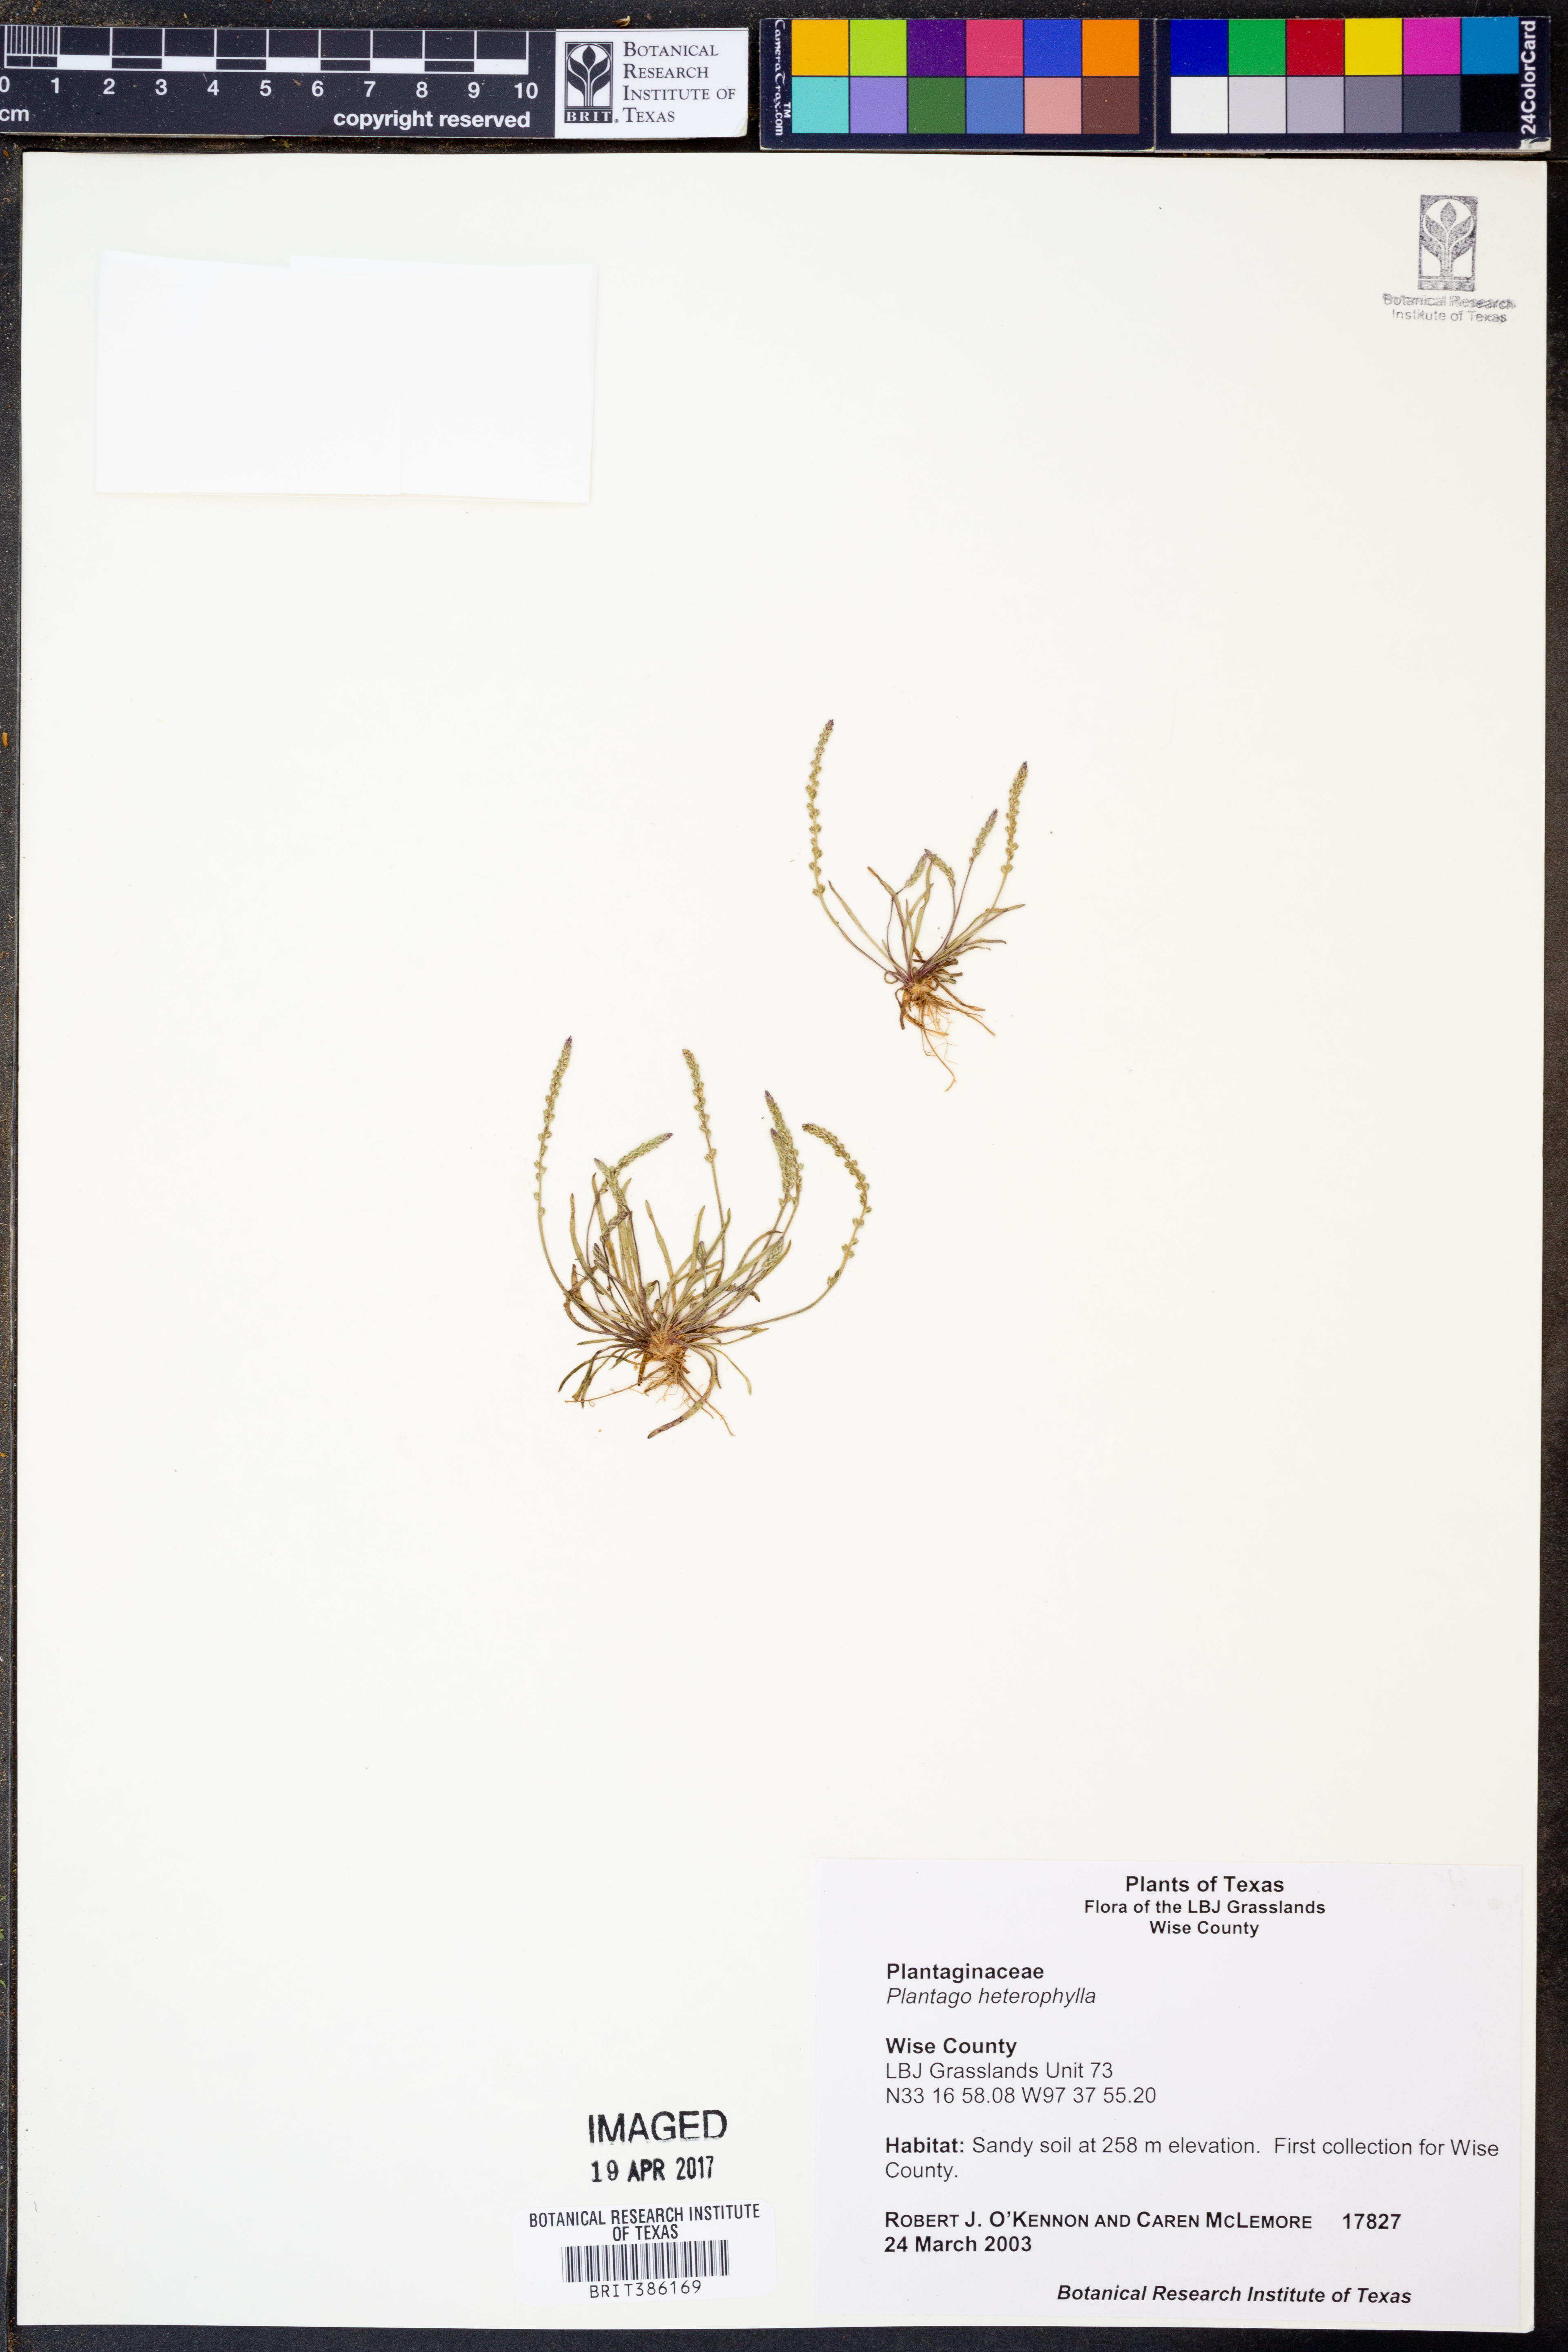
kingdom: Plantae
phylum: Tracheophyta
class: Magnoliopsida
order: Lamiales
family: Plantaginaceae
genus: Plantago
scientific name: Plantago heterophylla
